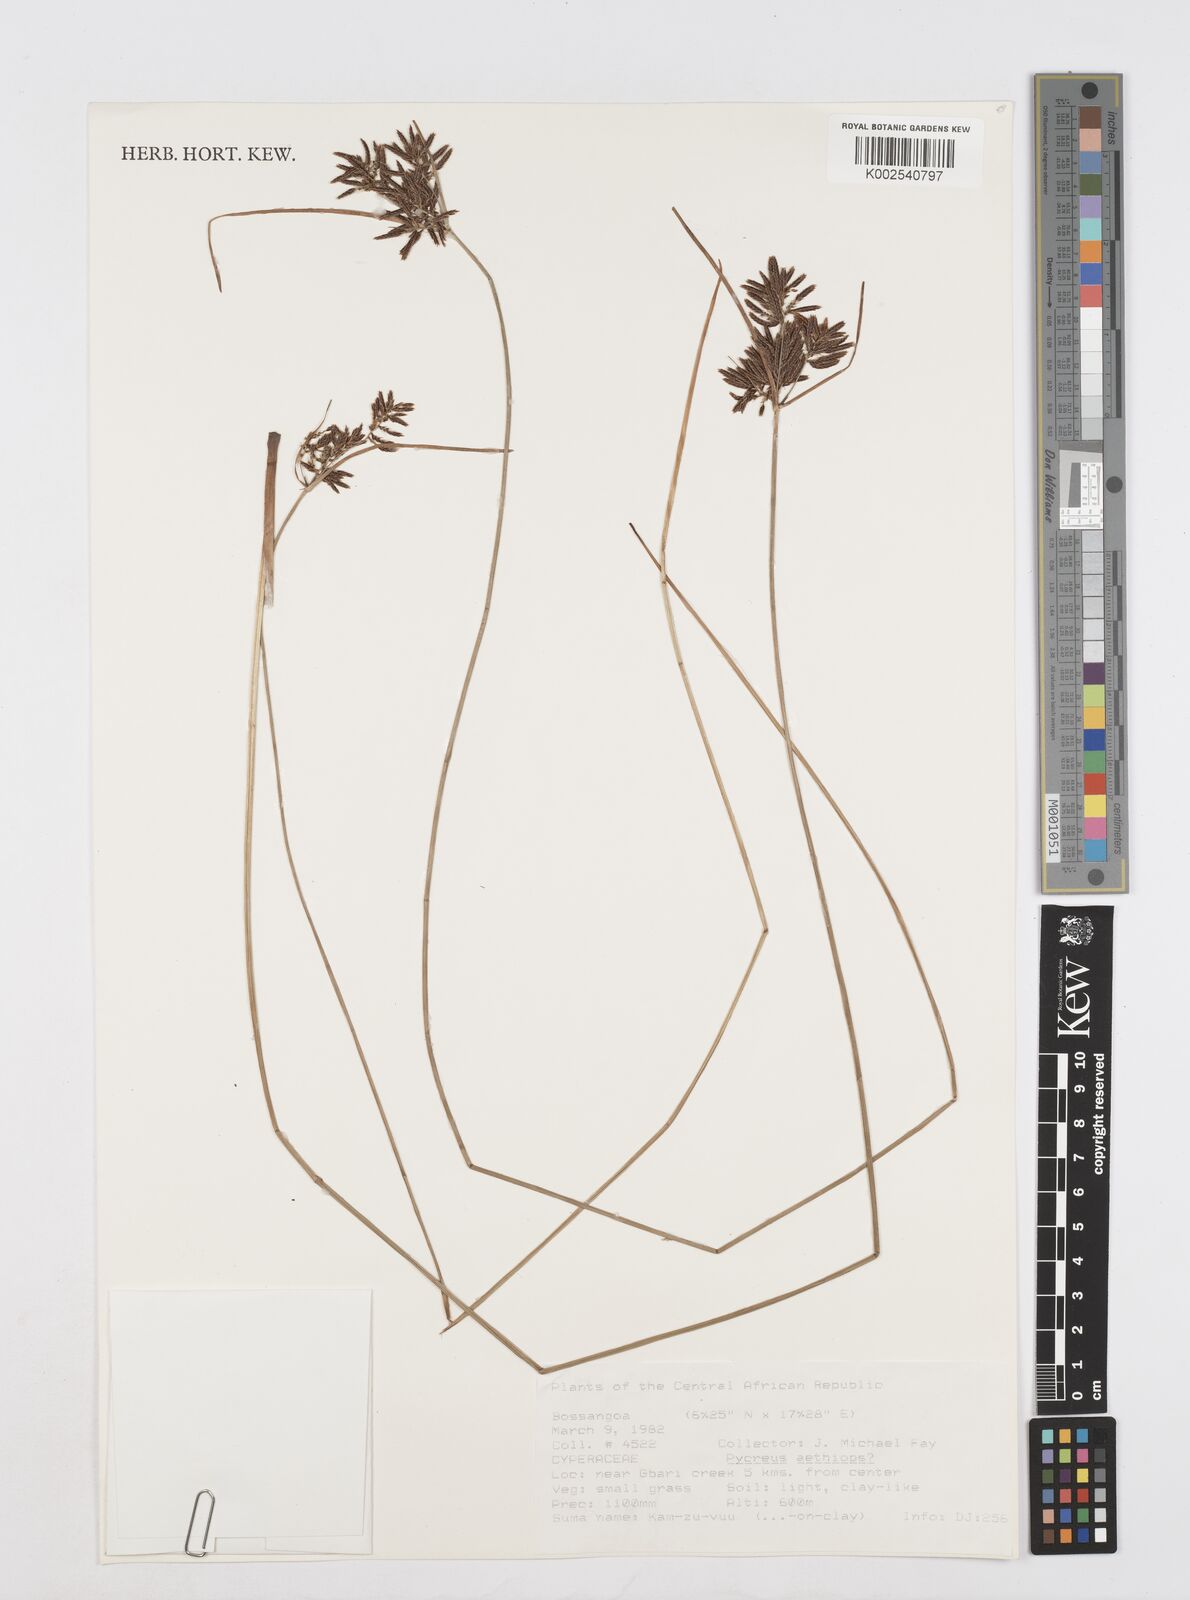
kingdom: Plantae
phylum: Tracheophyta
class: Liliopsida
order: Poales
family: Cyperaceae
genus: Cyperus
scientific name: Cyperus aethiops
